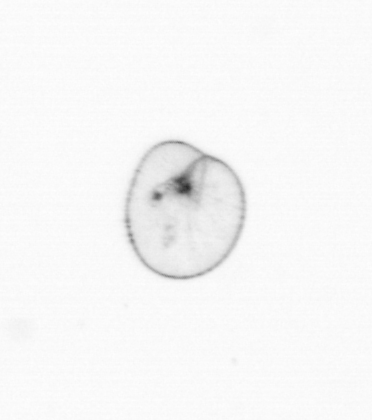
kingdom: Chromista
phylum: Myzozoa
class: Dinophyceae
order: Noctilucales
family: Noctilucaceae
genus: Noctiluca
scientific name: Noctiluca scintillans
